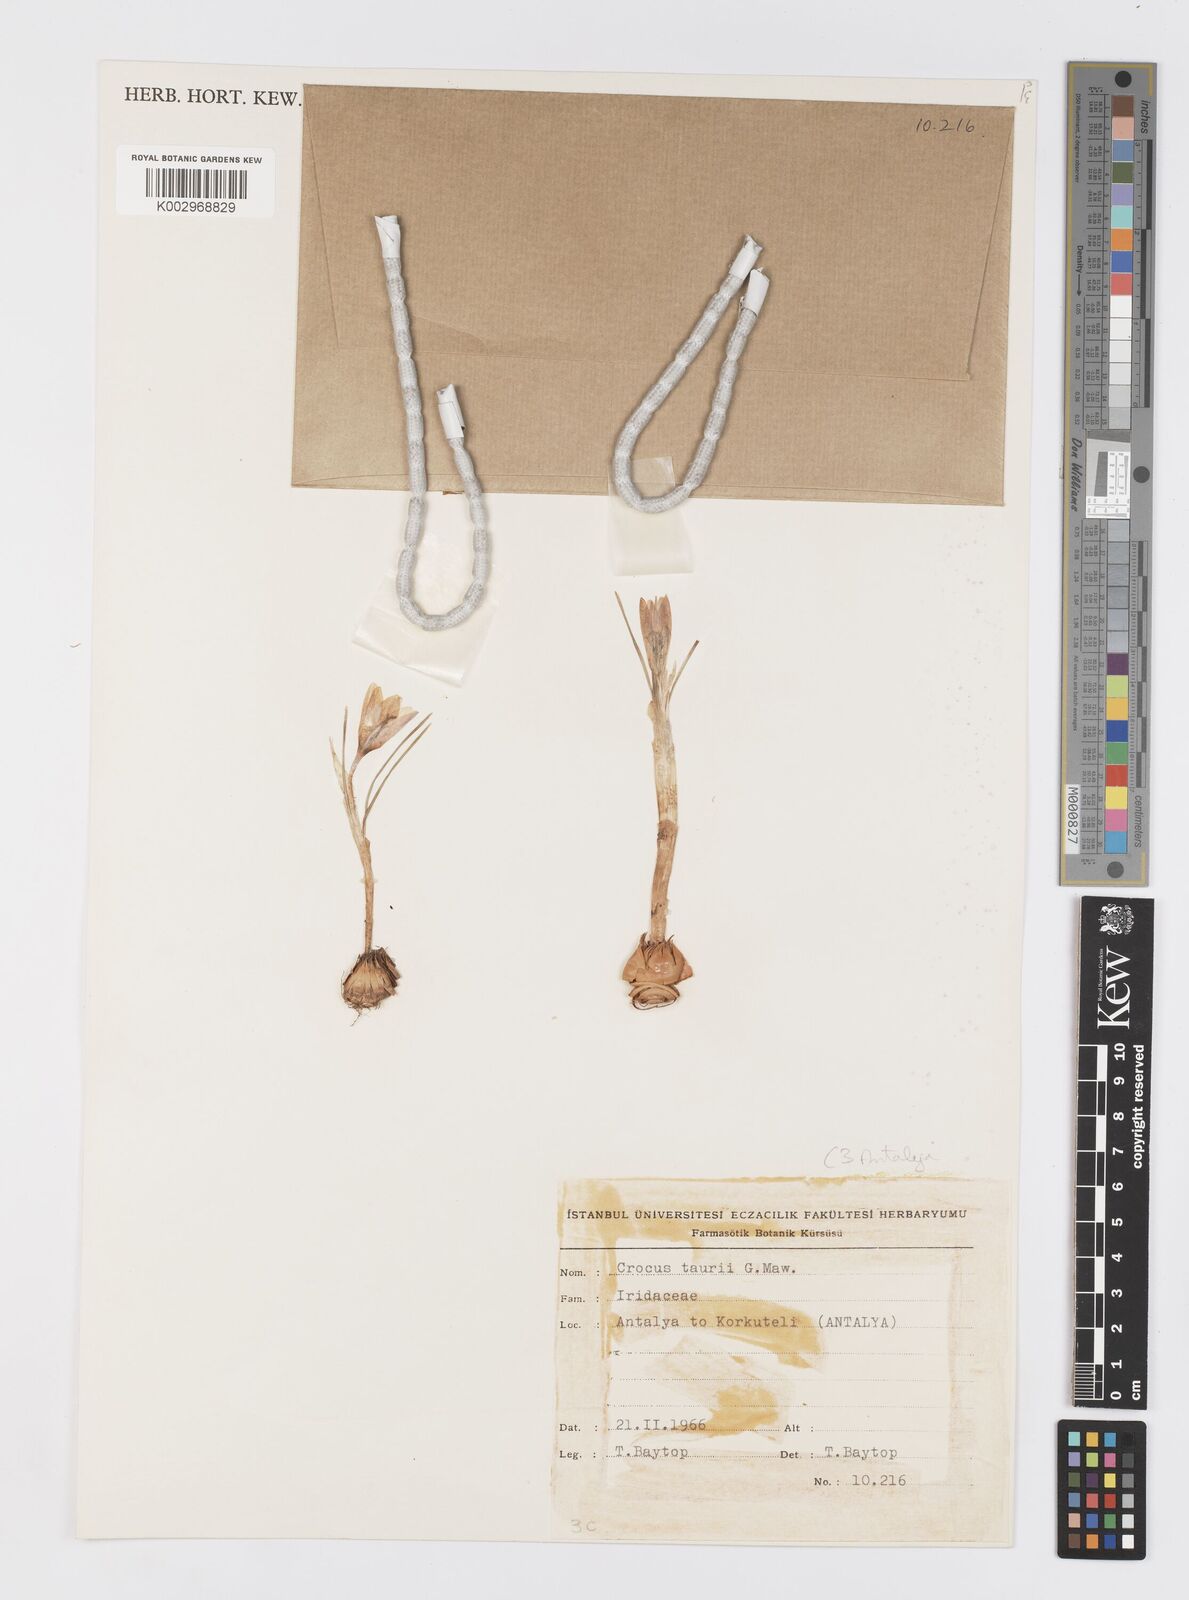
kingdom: Plantae
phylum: Tracheophyta
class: Liliopsida
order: Asparagales
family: Iridaceae
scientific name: Iridaceae
